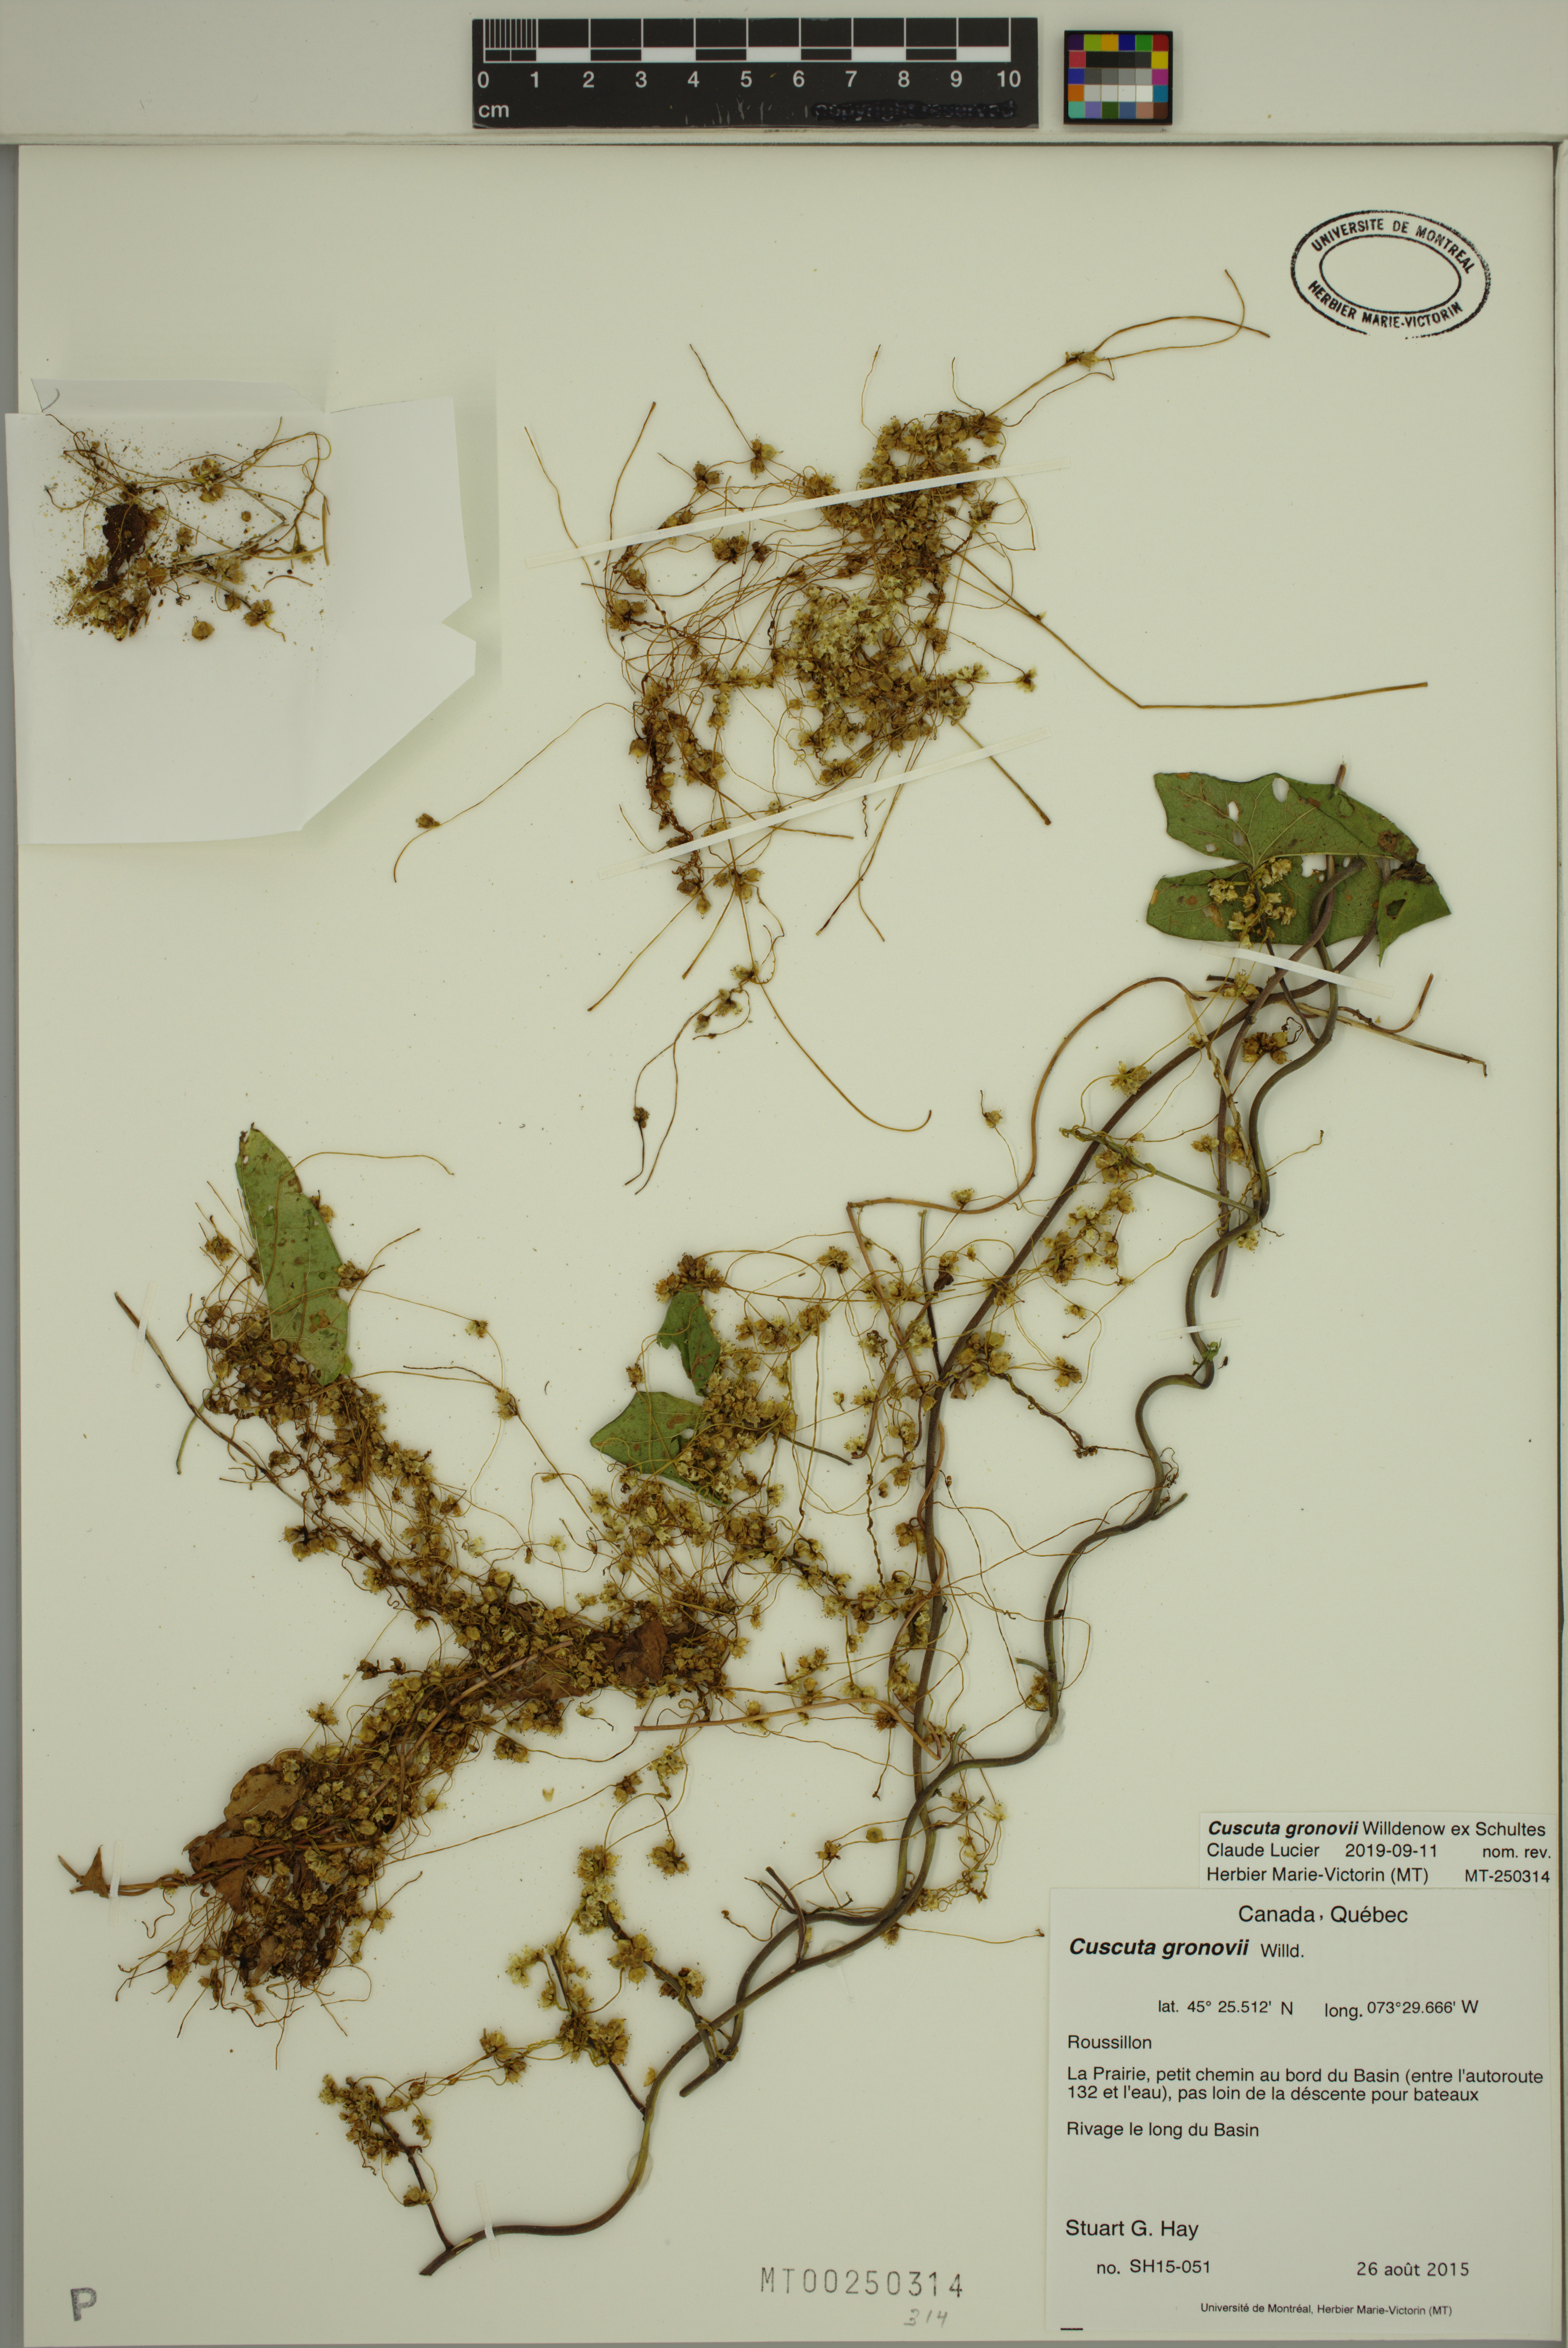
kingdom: Plantae
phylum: Tracheophyta
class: Magnoliopsida
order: Solanales
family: Convolvulaceae
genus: Cuscuta
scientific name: Cuscuta gronovii
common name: Common dodder
